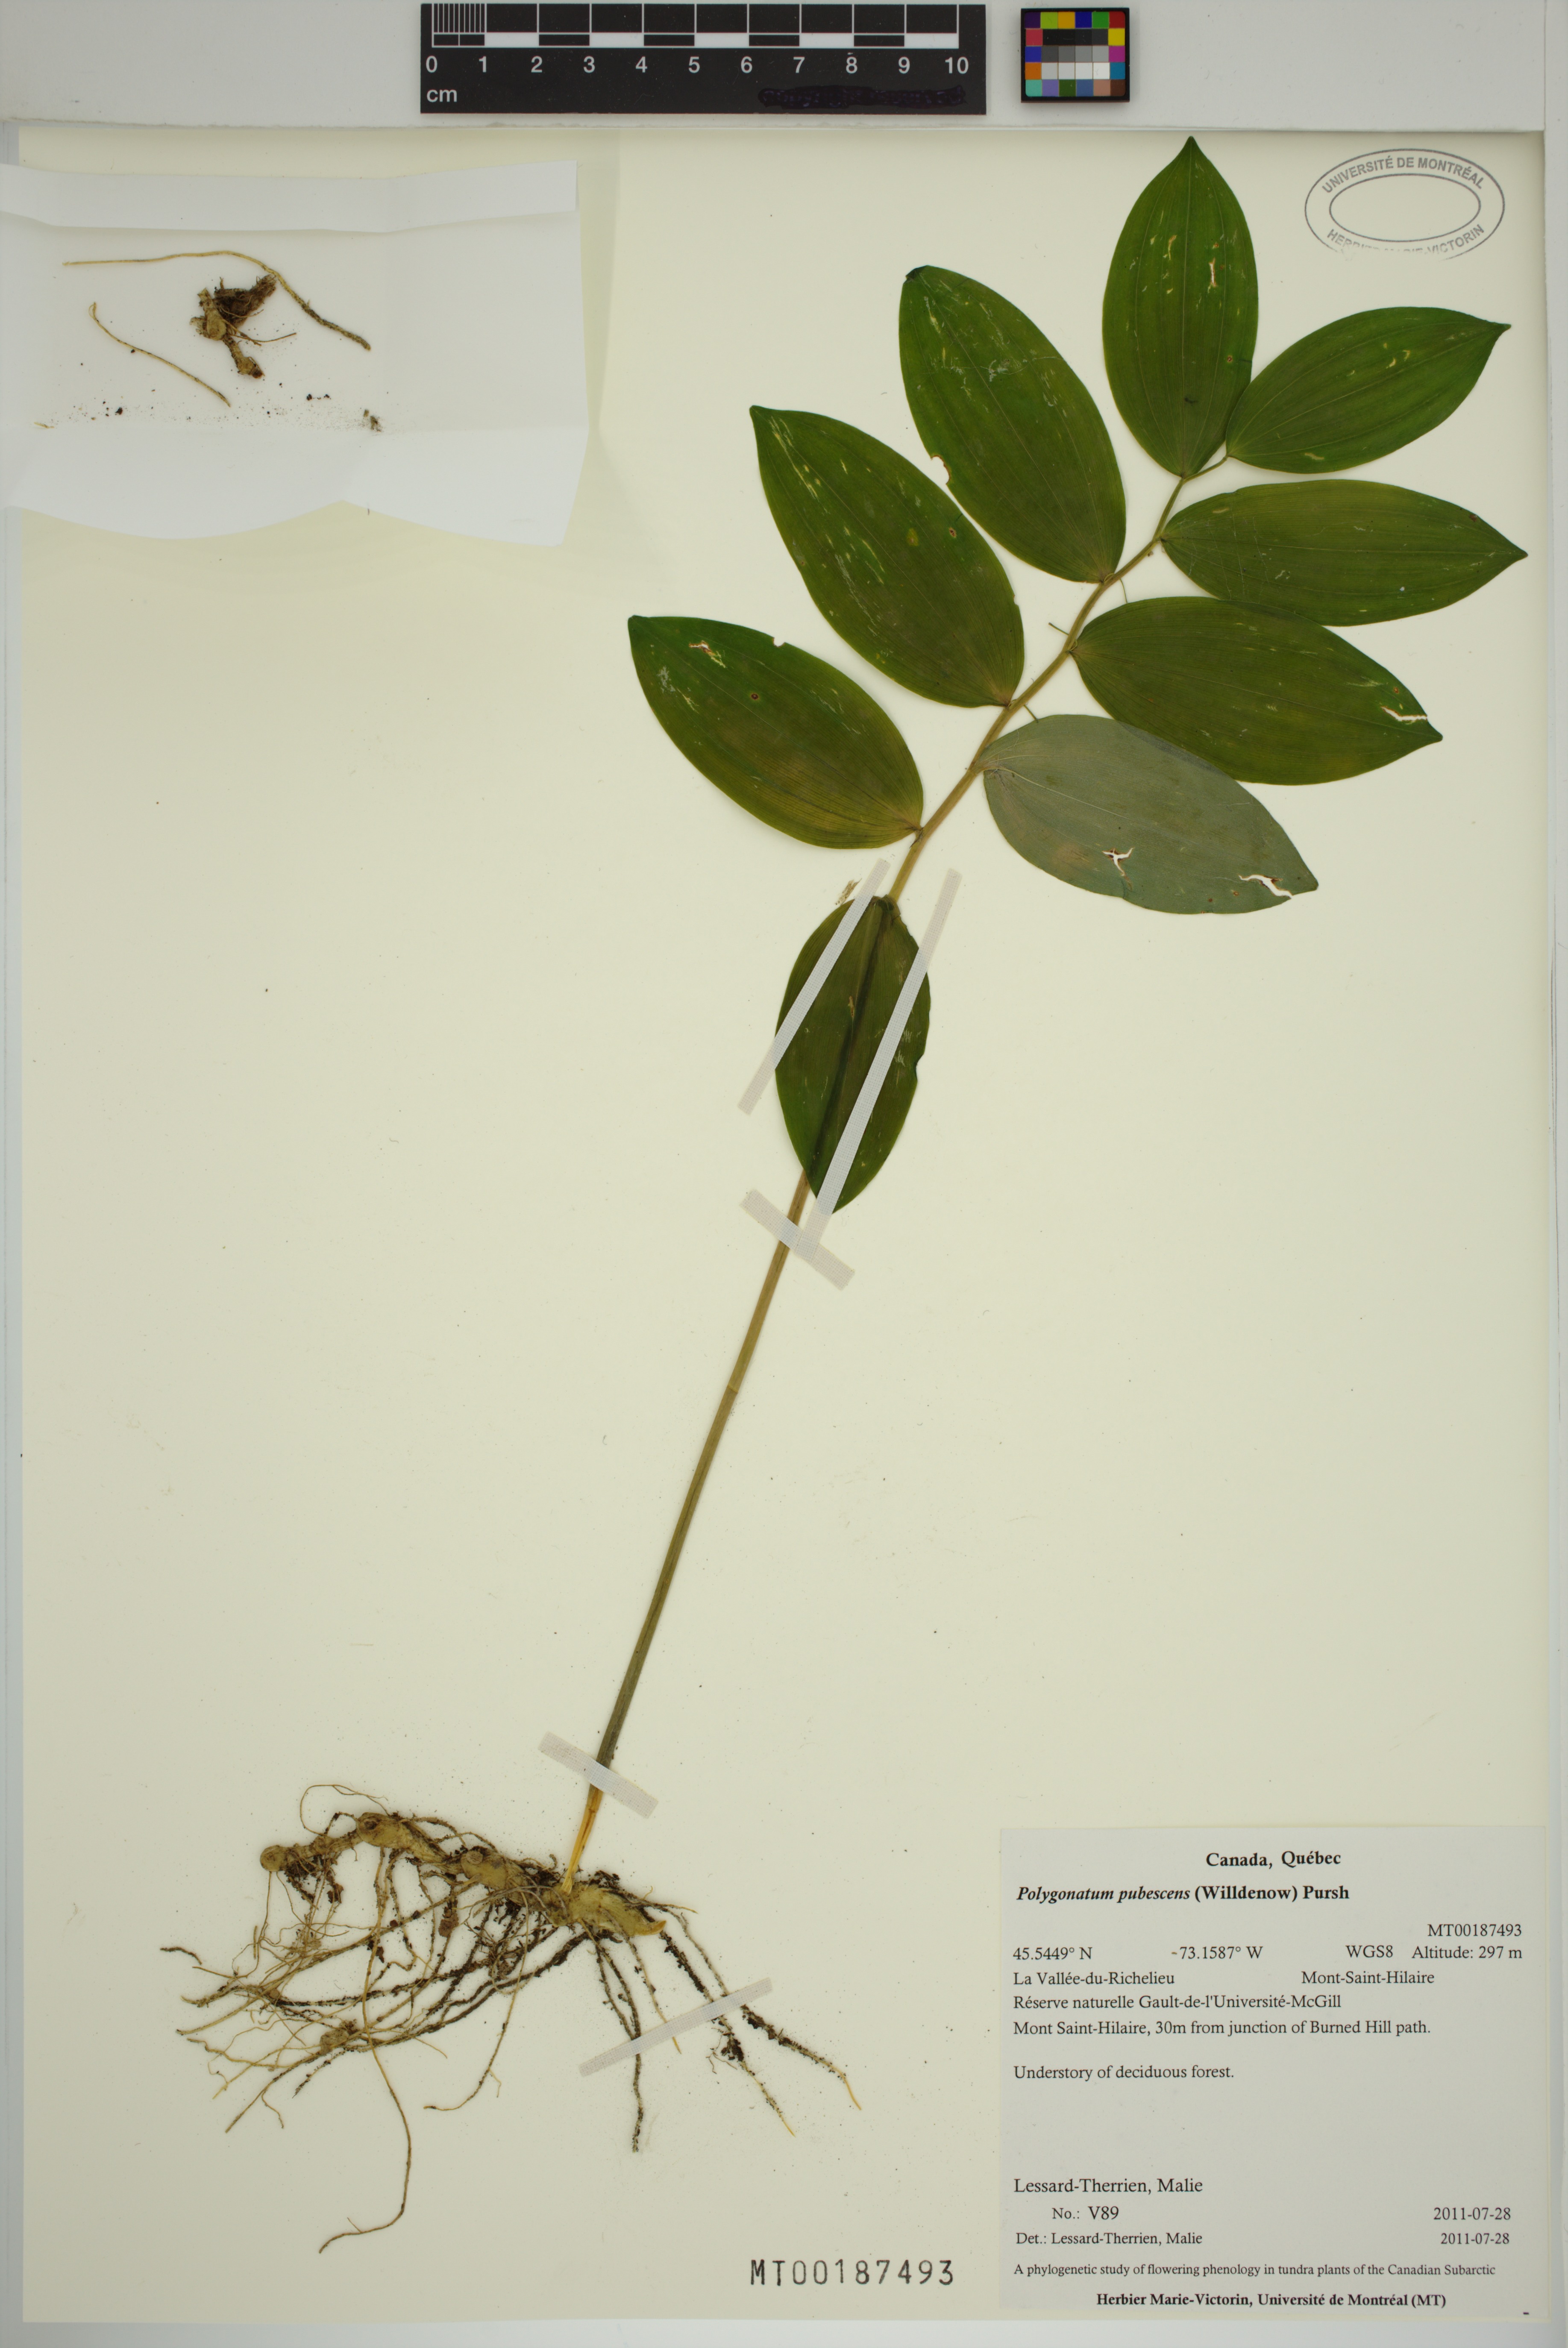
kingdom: Plantae
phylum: Tracheophyta
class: Liliopsida
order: Asparagales
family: Asparagaceae
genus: Polygonatum
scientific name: Polygonatum pubescens
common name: Downy solomon's seal
